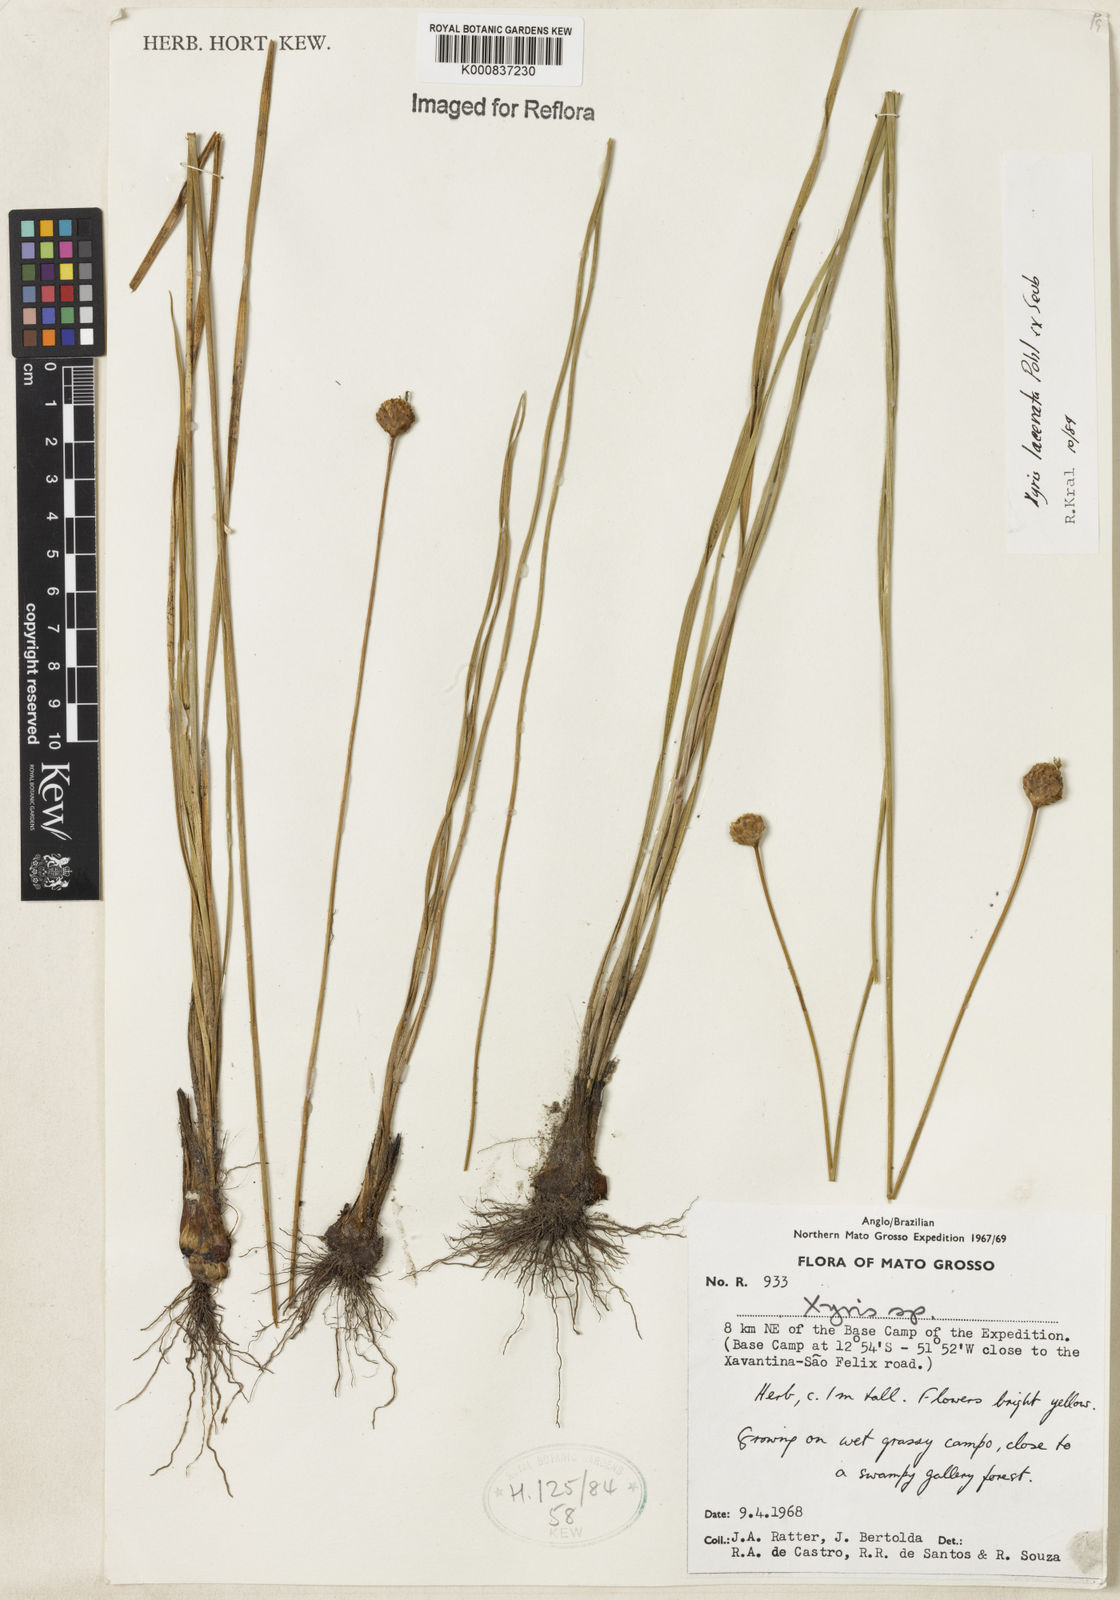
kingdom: Plantae
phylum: Tracheophyta
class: Liliopsida
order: Poales
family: Xyridaceae
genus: Xyris
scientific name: Xyris lacerata
